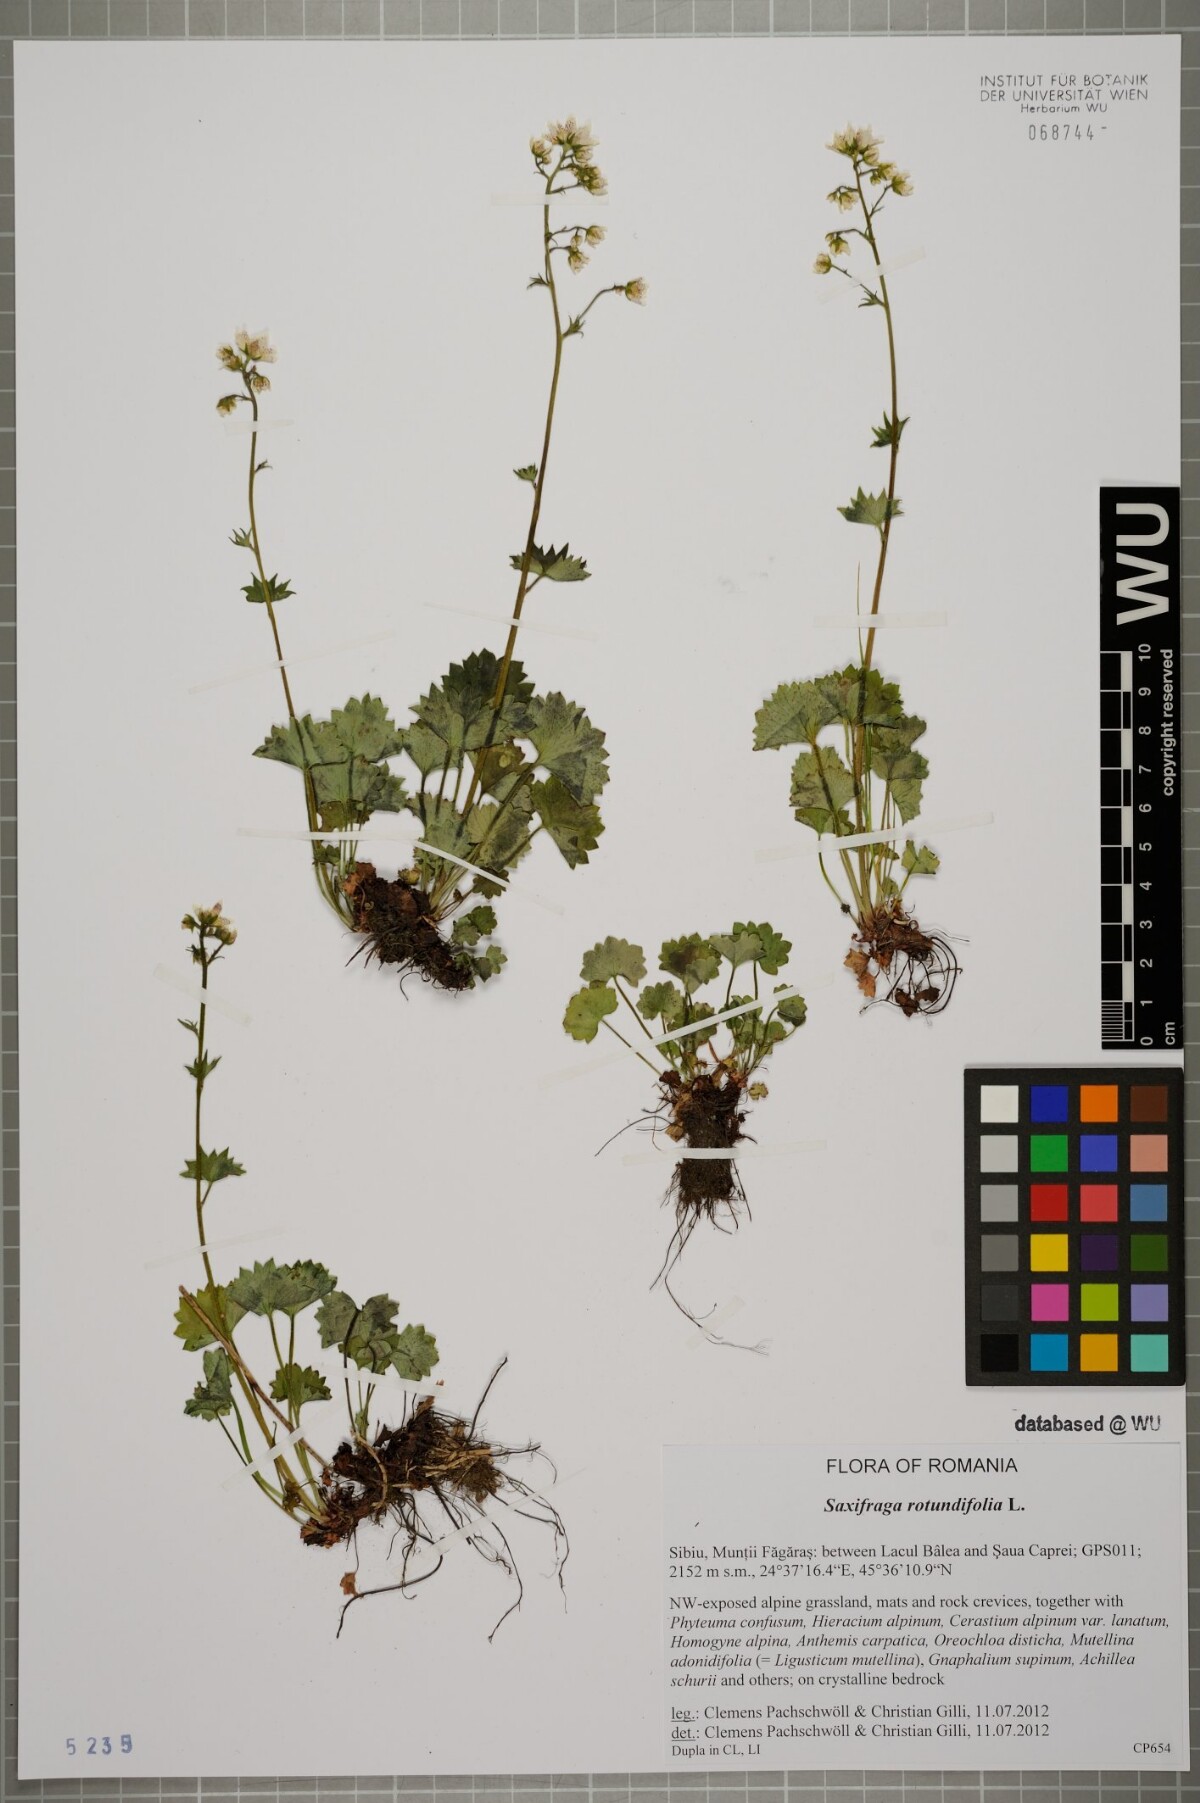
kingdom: Plantae
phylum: Tracheophyta
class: Magnoliopsida
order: Saxifragales
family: Saxifragaceae
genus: Saxifraga
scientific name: Saxifraga rotundifolia
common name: Round-leaved saxifrage
